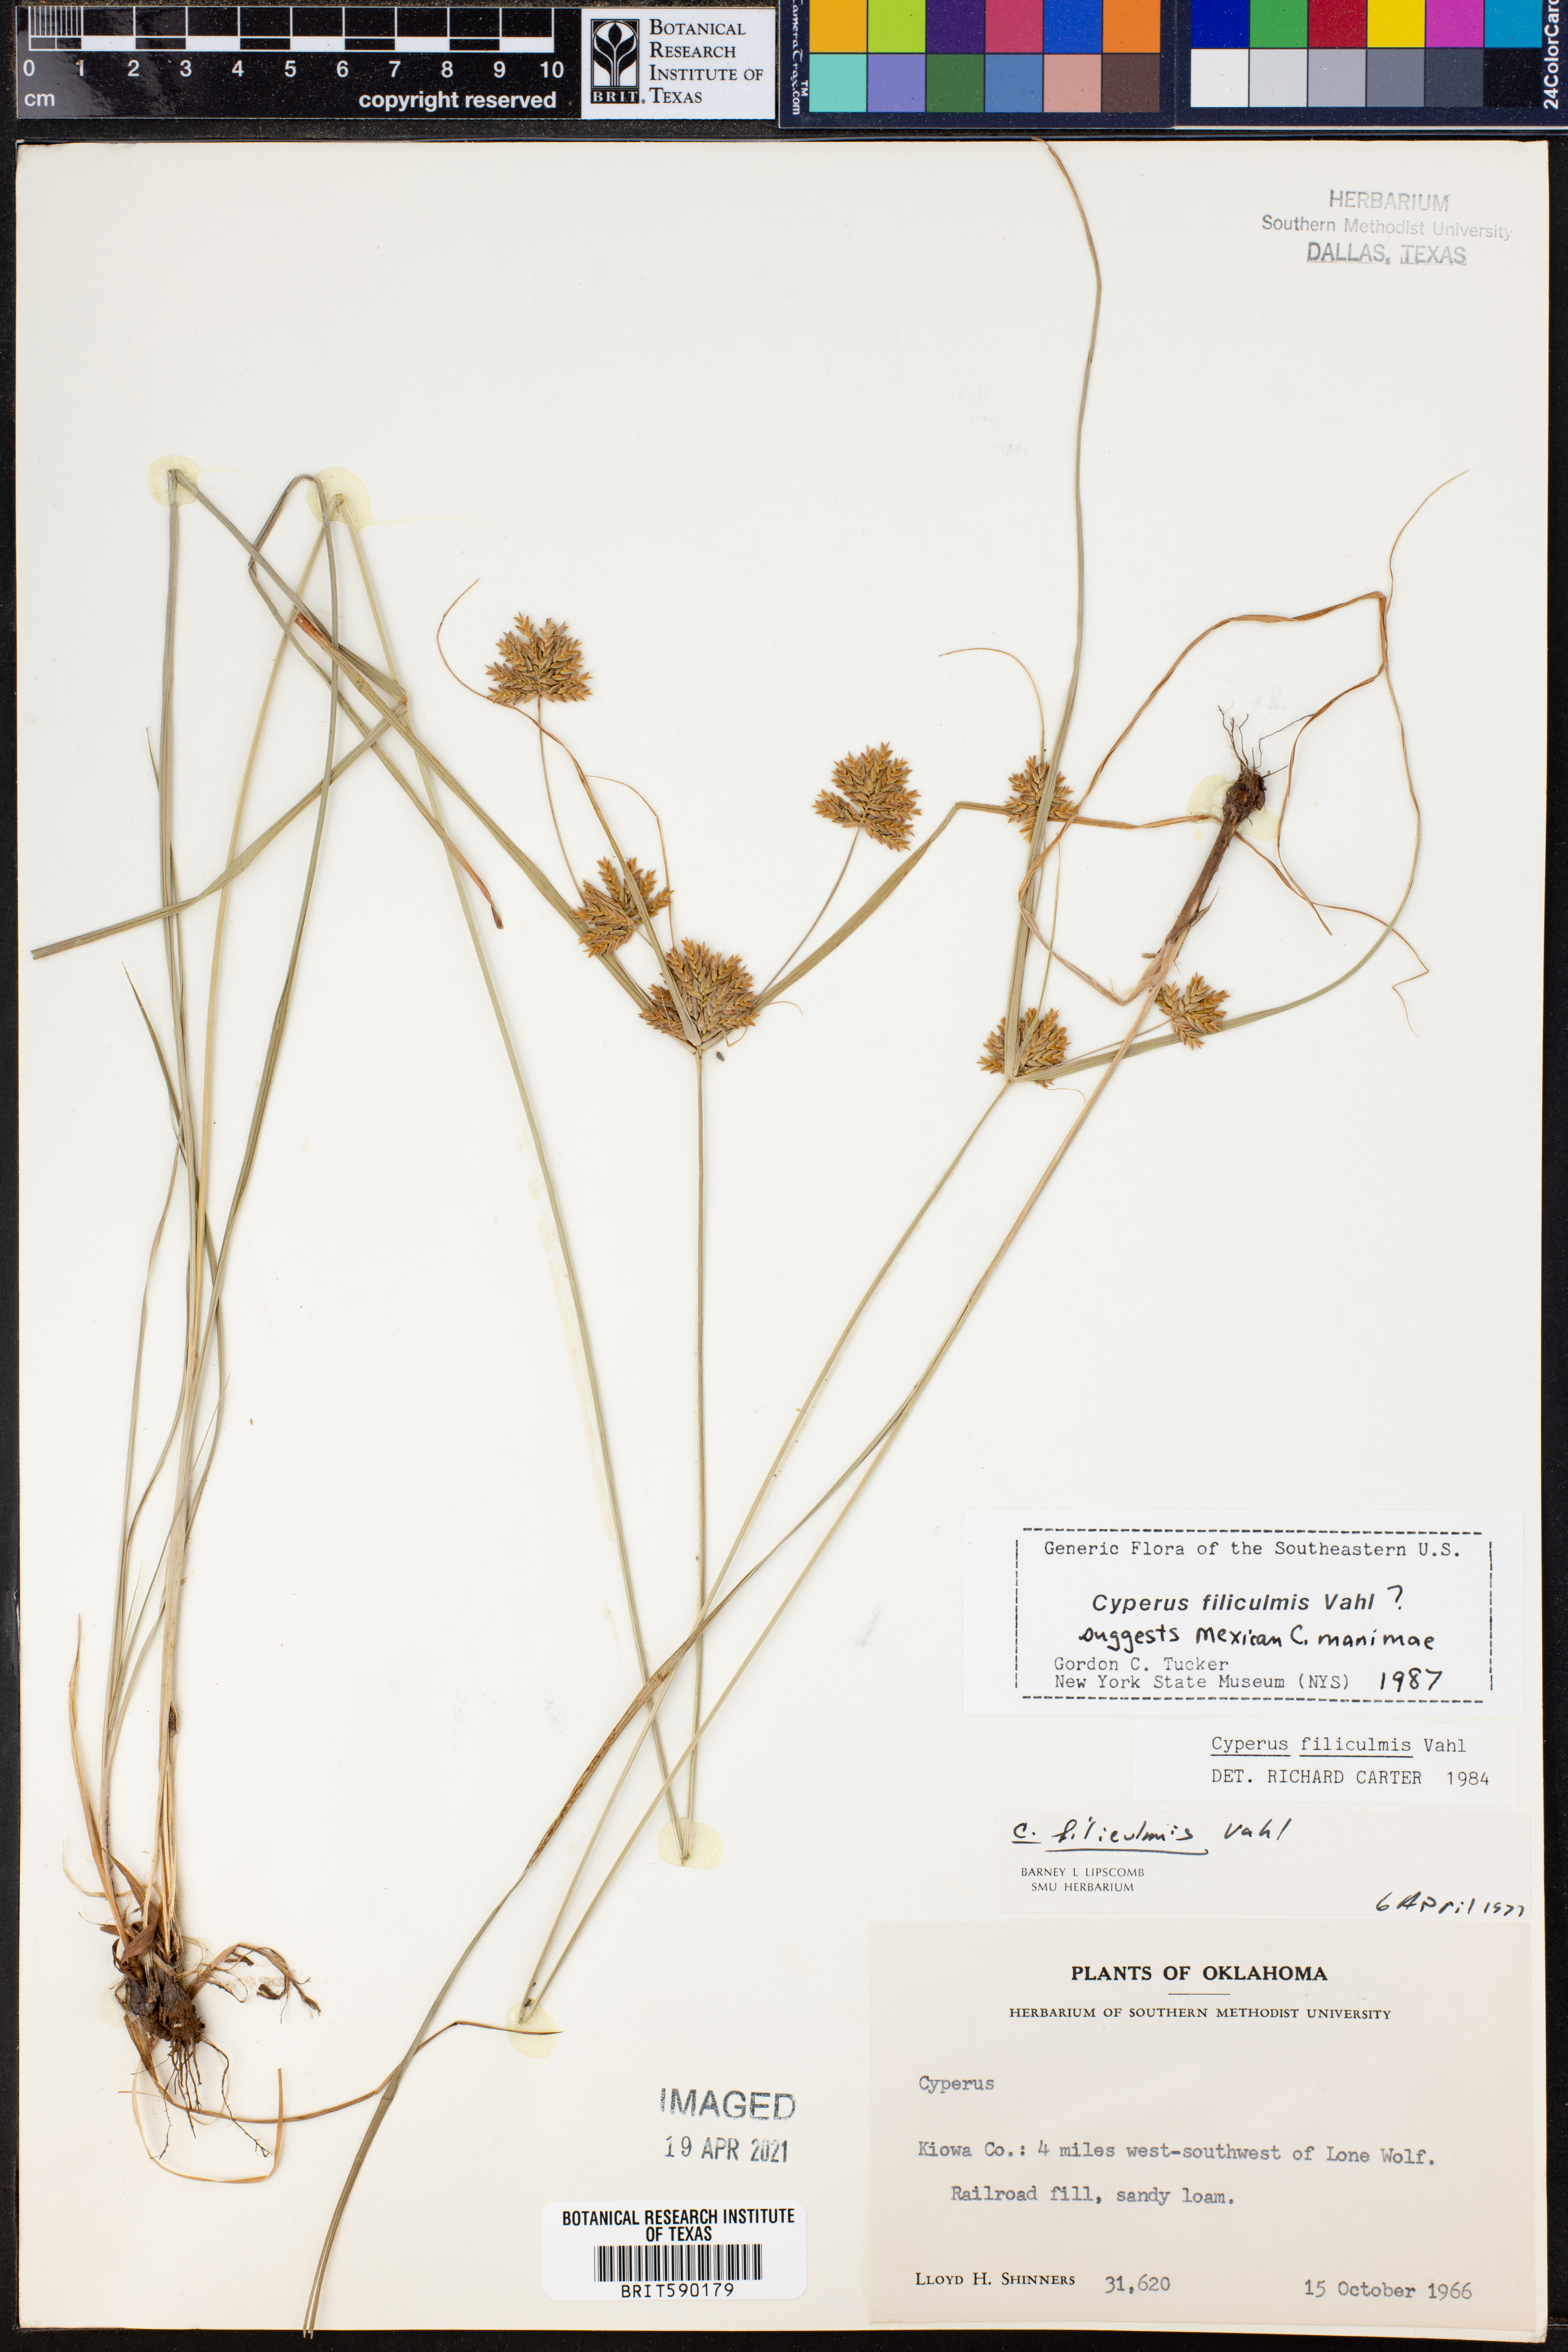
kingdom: Plantae
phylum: Tracheophyta
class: Liliopsida
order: Poales
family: Cyperaceae
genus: Cyperus
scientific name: Cyperus lanceolatus
